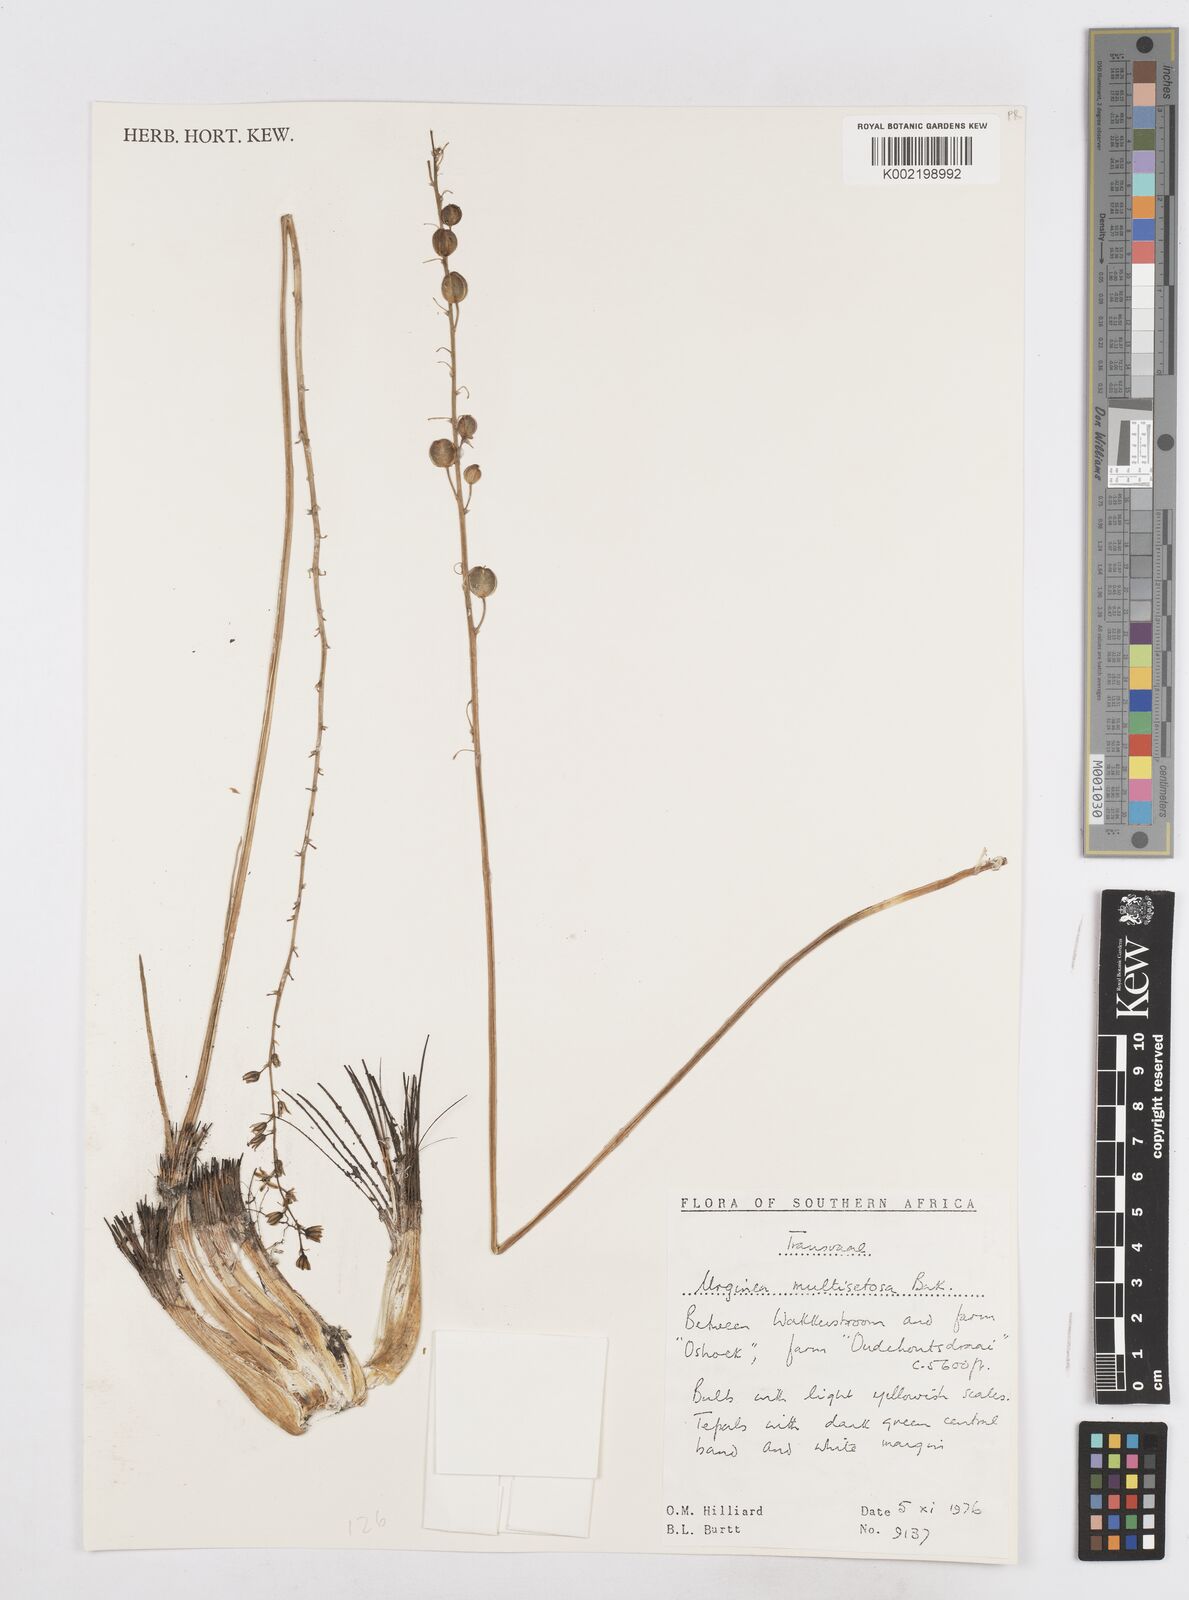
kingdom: Plantae
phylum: Tracheophyta
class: Liliopsida
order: Asparagales
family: Asparagaceae
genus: Drimia
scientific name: Drimia multisetosa
